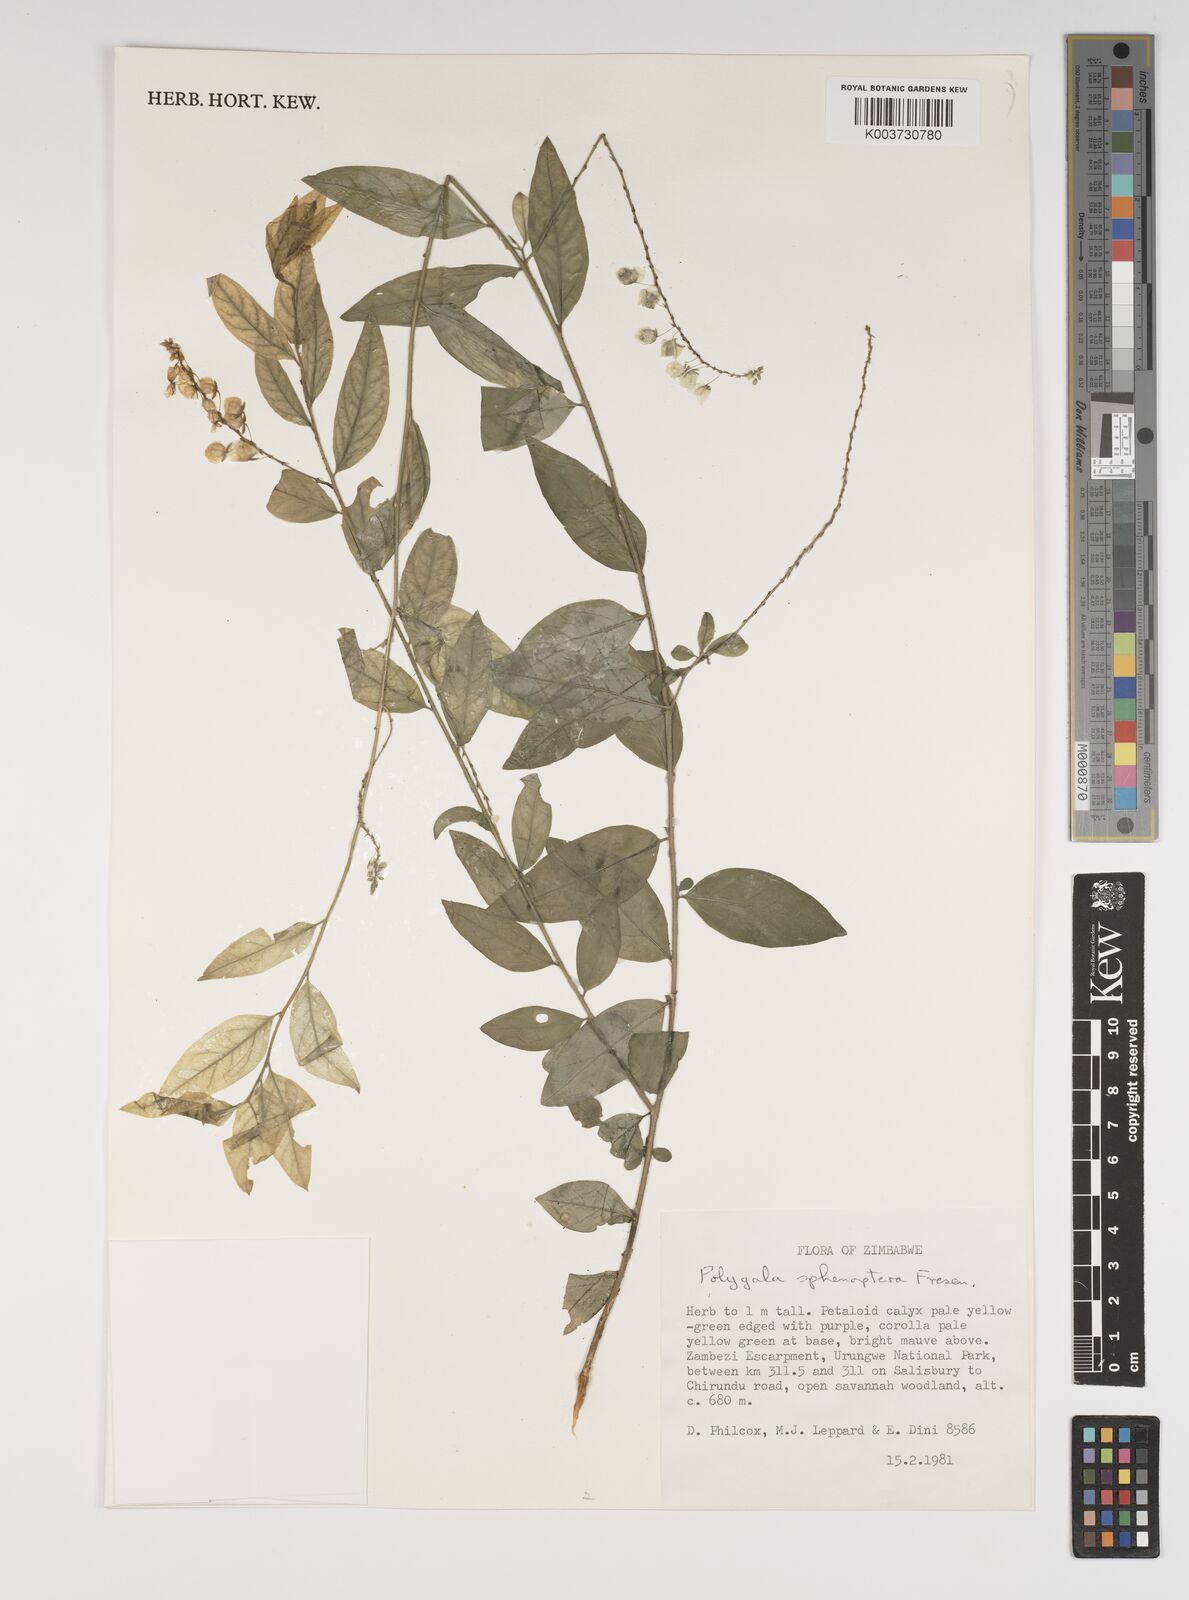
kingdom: Plantae
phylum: Tracheophyta
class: Magnoliopsida
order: Fabales
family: Polygalaceae
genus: Polygala
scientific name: Polygala sphenoptera
